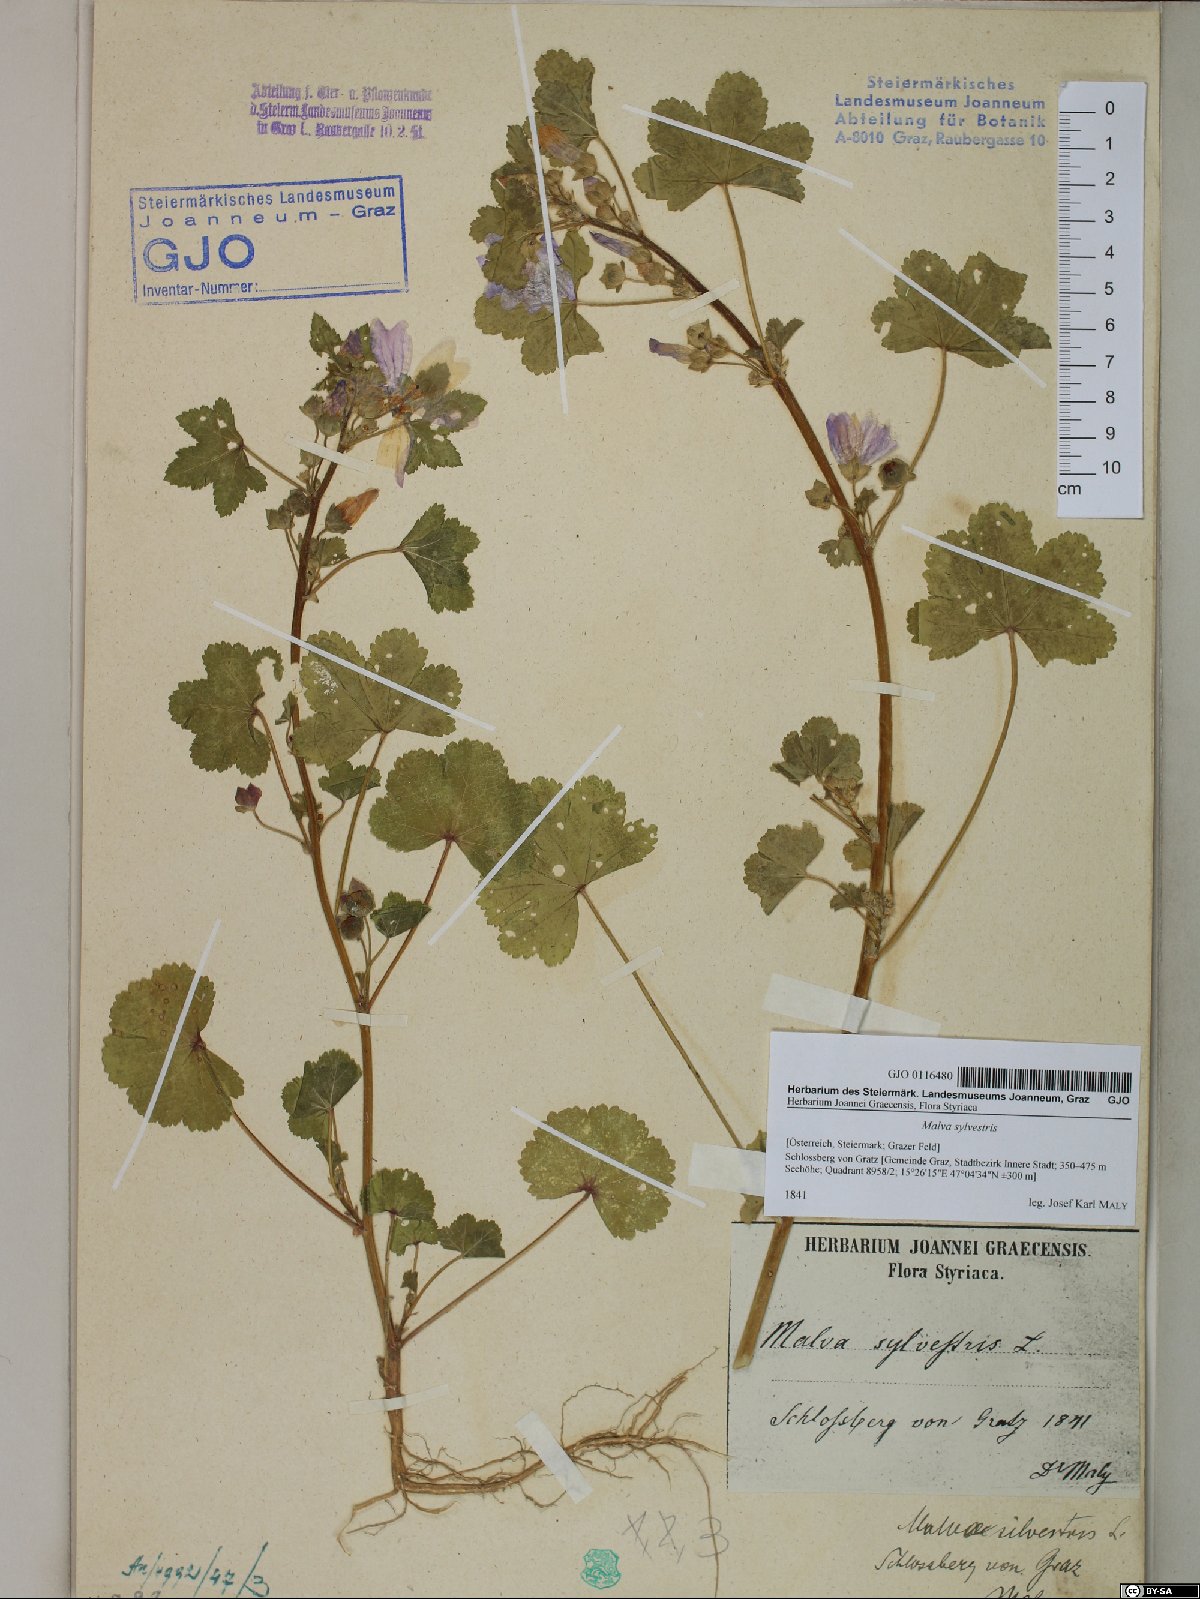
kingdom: Plantae
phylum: Tracheophyta
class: Magnoliopsida
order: Malvales
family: Malvaceae
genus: Malva
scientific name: Malva sylvestris
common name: Common mallow
